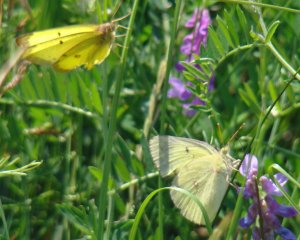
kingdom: Animalia
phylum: Arthropoda
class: Insecta
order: Lepidoptera
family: Pieridae
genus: Colias
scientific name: Colias philodice
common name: Clouded Sulphur
